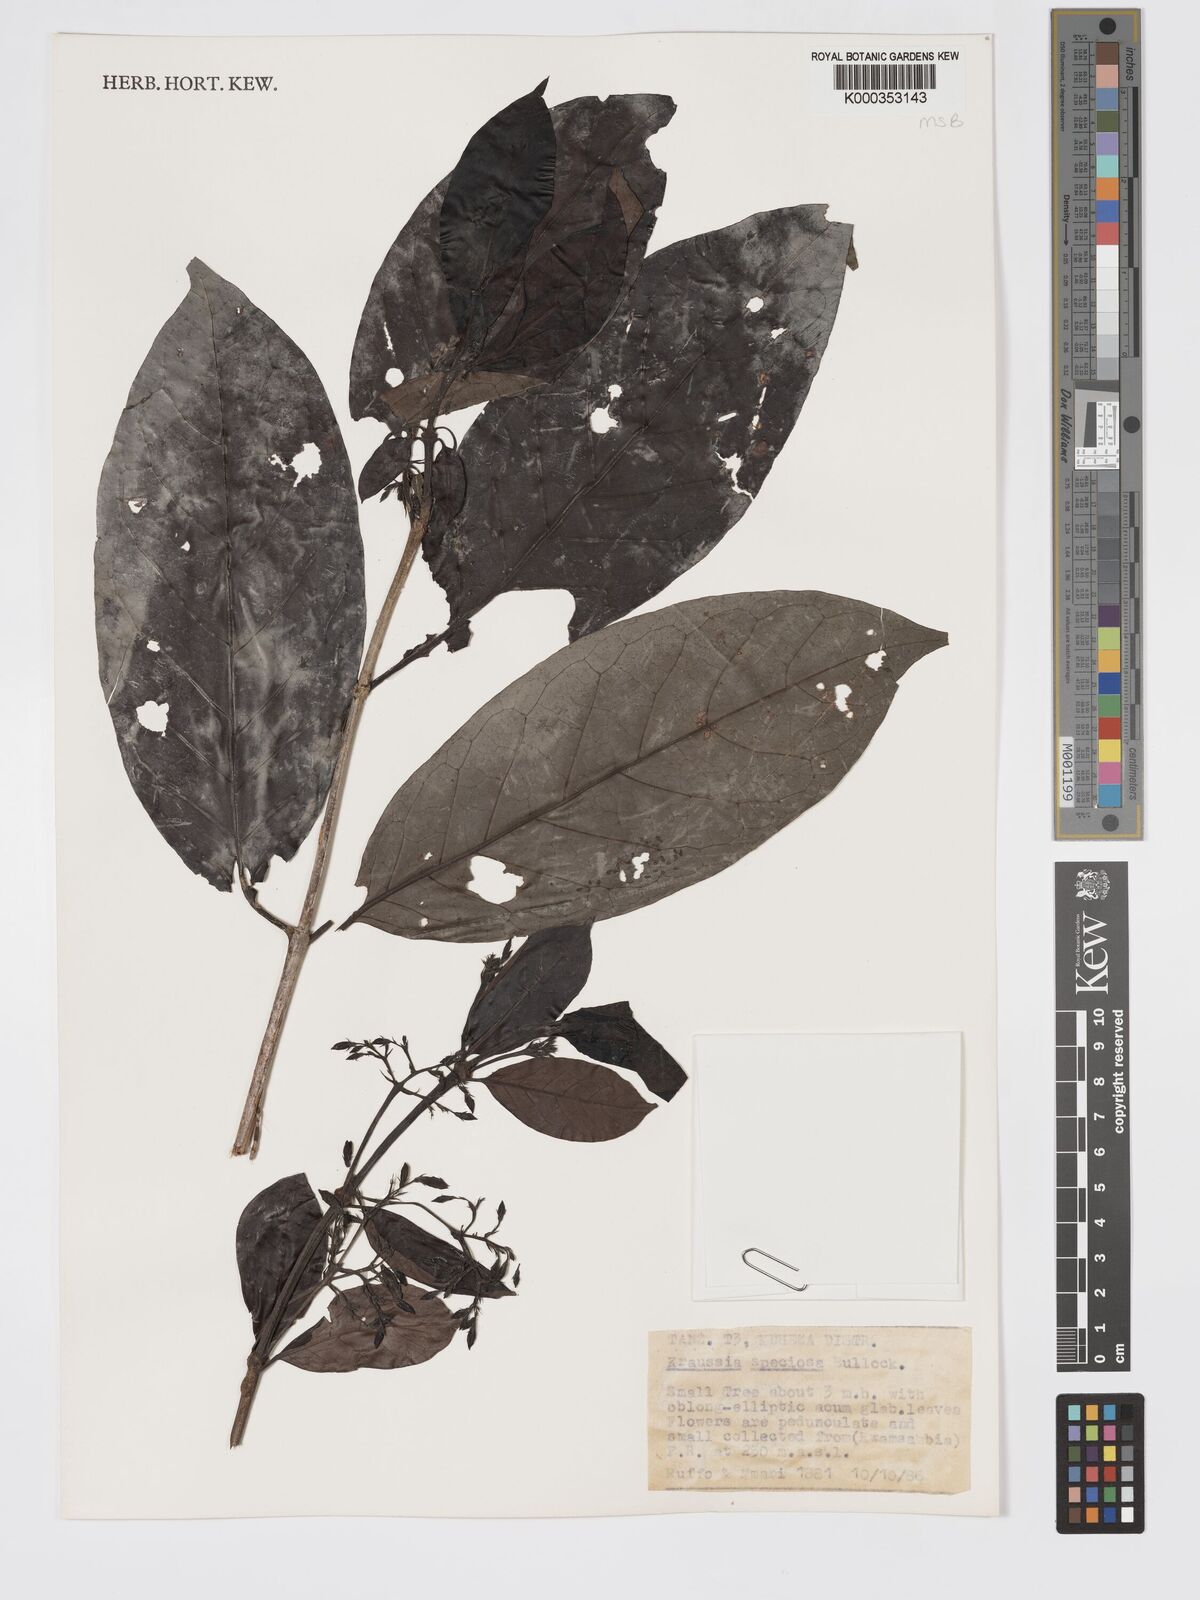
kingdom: Plantae
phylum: Tracheophyta
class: Magnoliopsida
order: Gentianales
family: Rubiaceae
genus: Kraussia
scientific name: Kraussia speciosa
